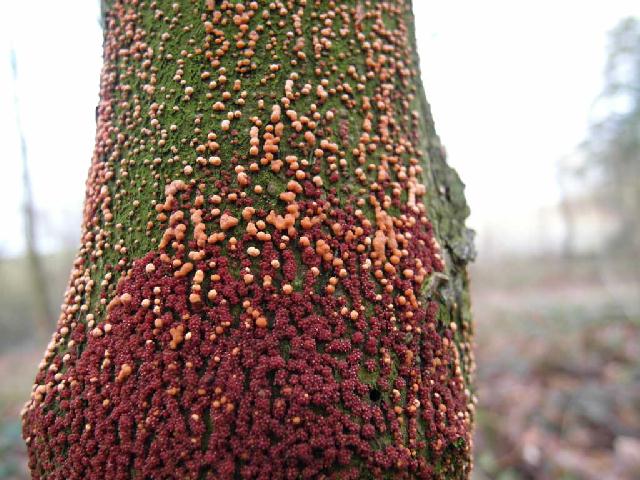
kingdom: Fungi
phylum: Ascomycota
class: Sordariomycetes
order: Hypocreales
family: Nectriaceae
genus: Nectria
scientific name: Nectria cinnabarina
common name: almindelig cinnobersvamp
